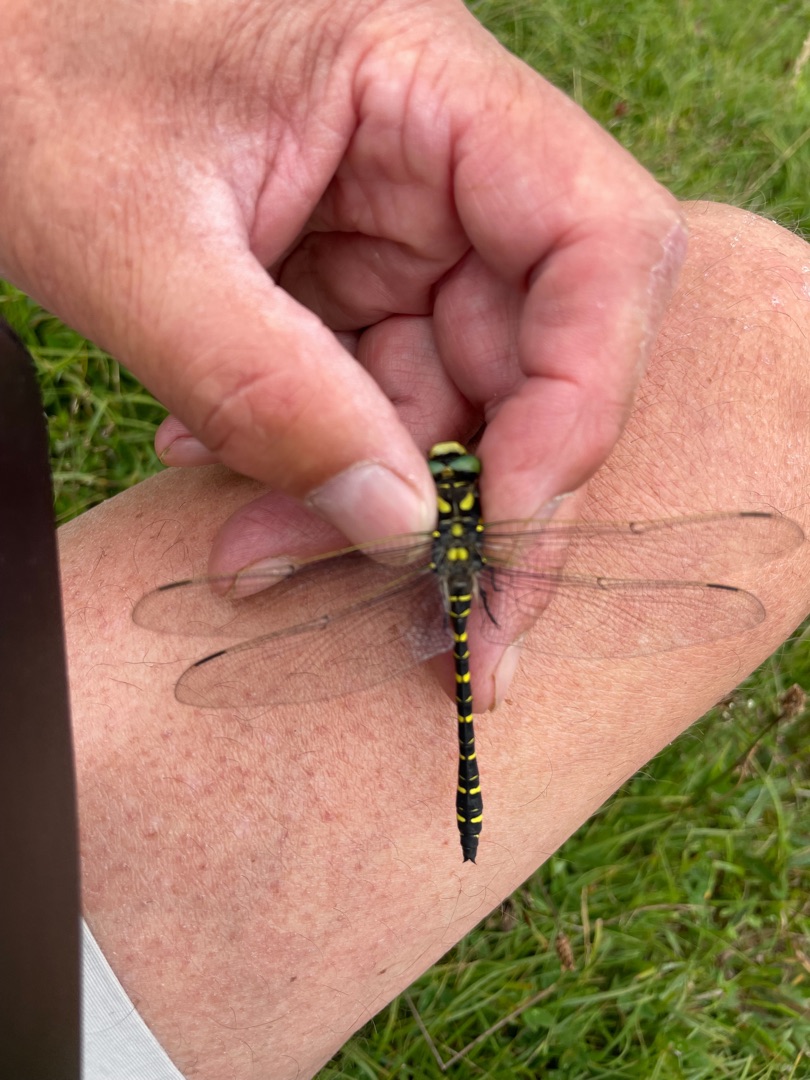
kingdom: Animalia
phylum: Arthropoda
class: Insecta
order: Odonata
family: Cordulegastridae
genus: Cordulegaster
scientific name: Cordulegaster boltonii
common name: Kongeguldsmed
